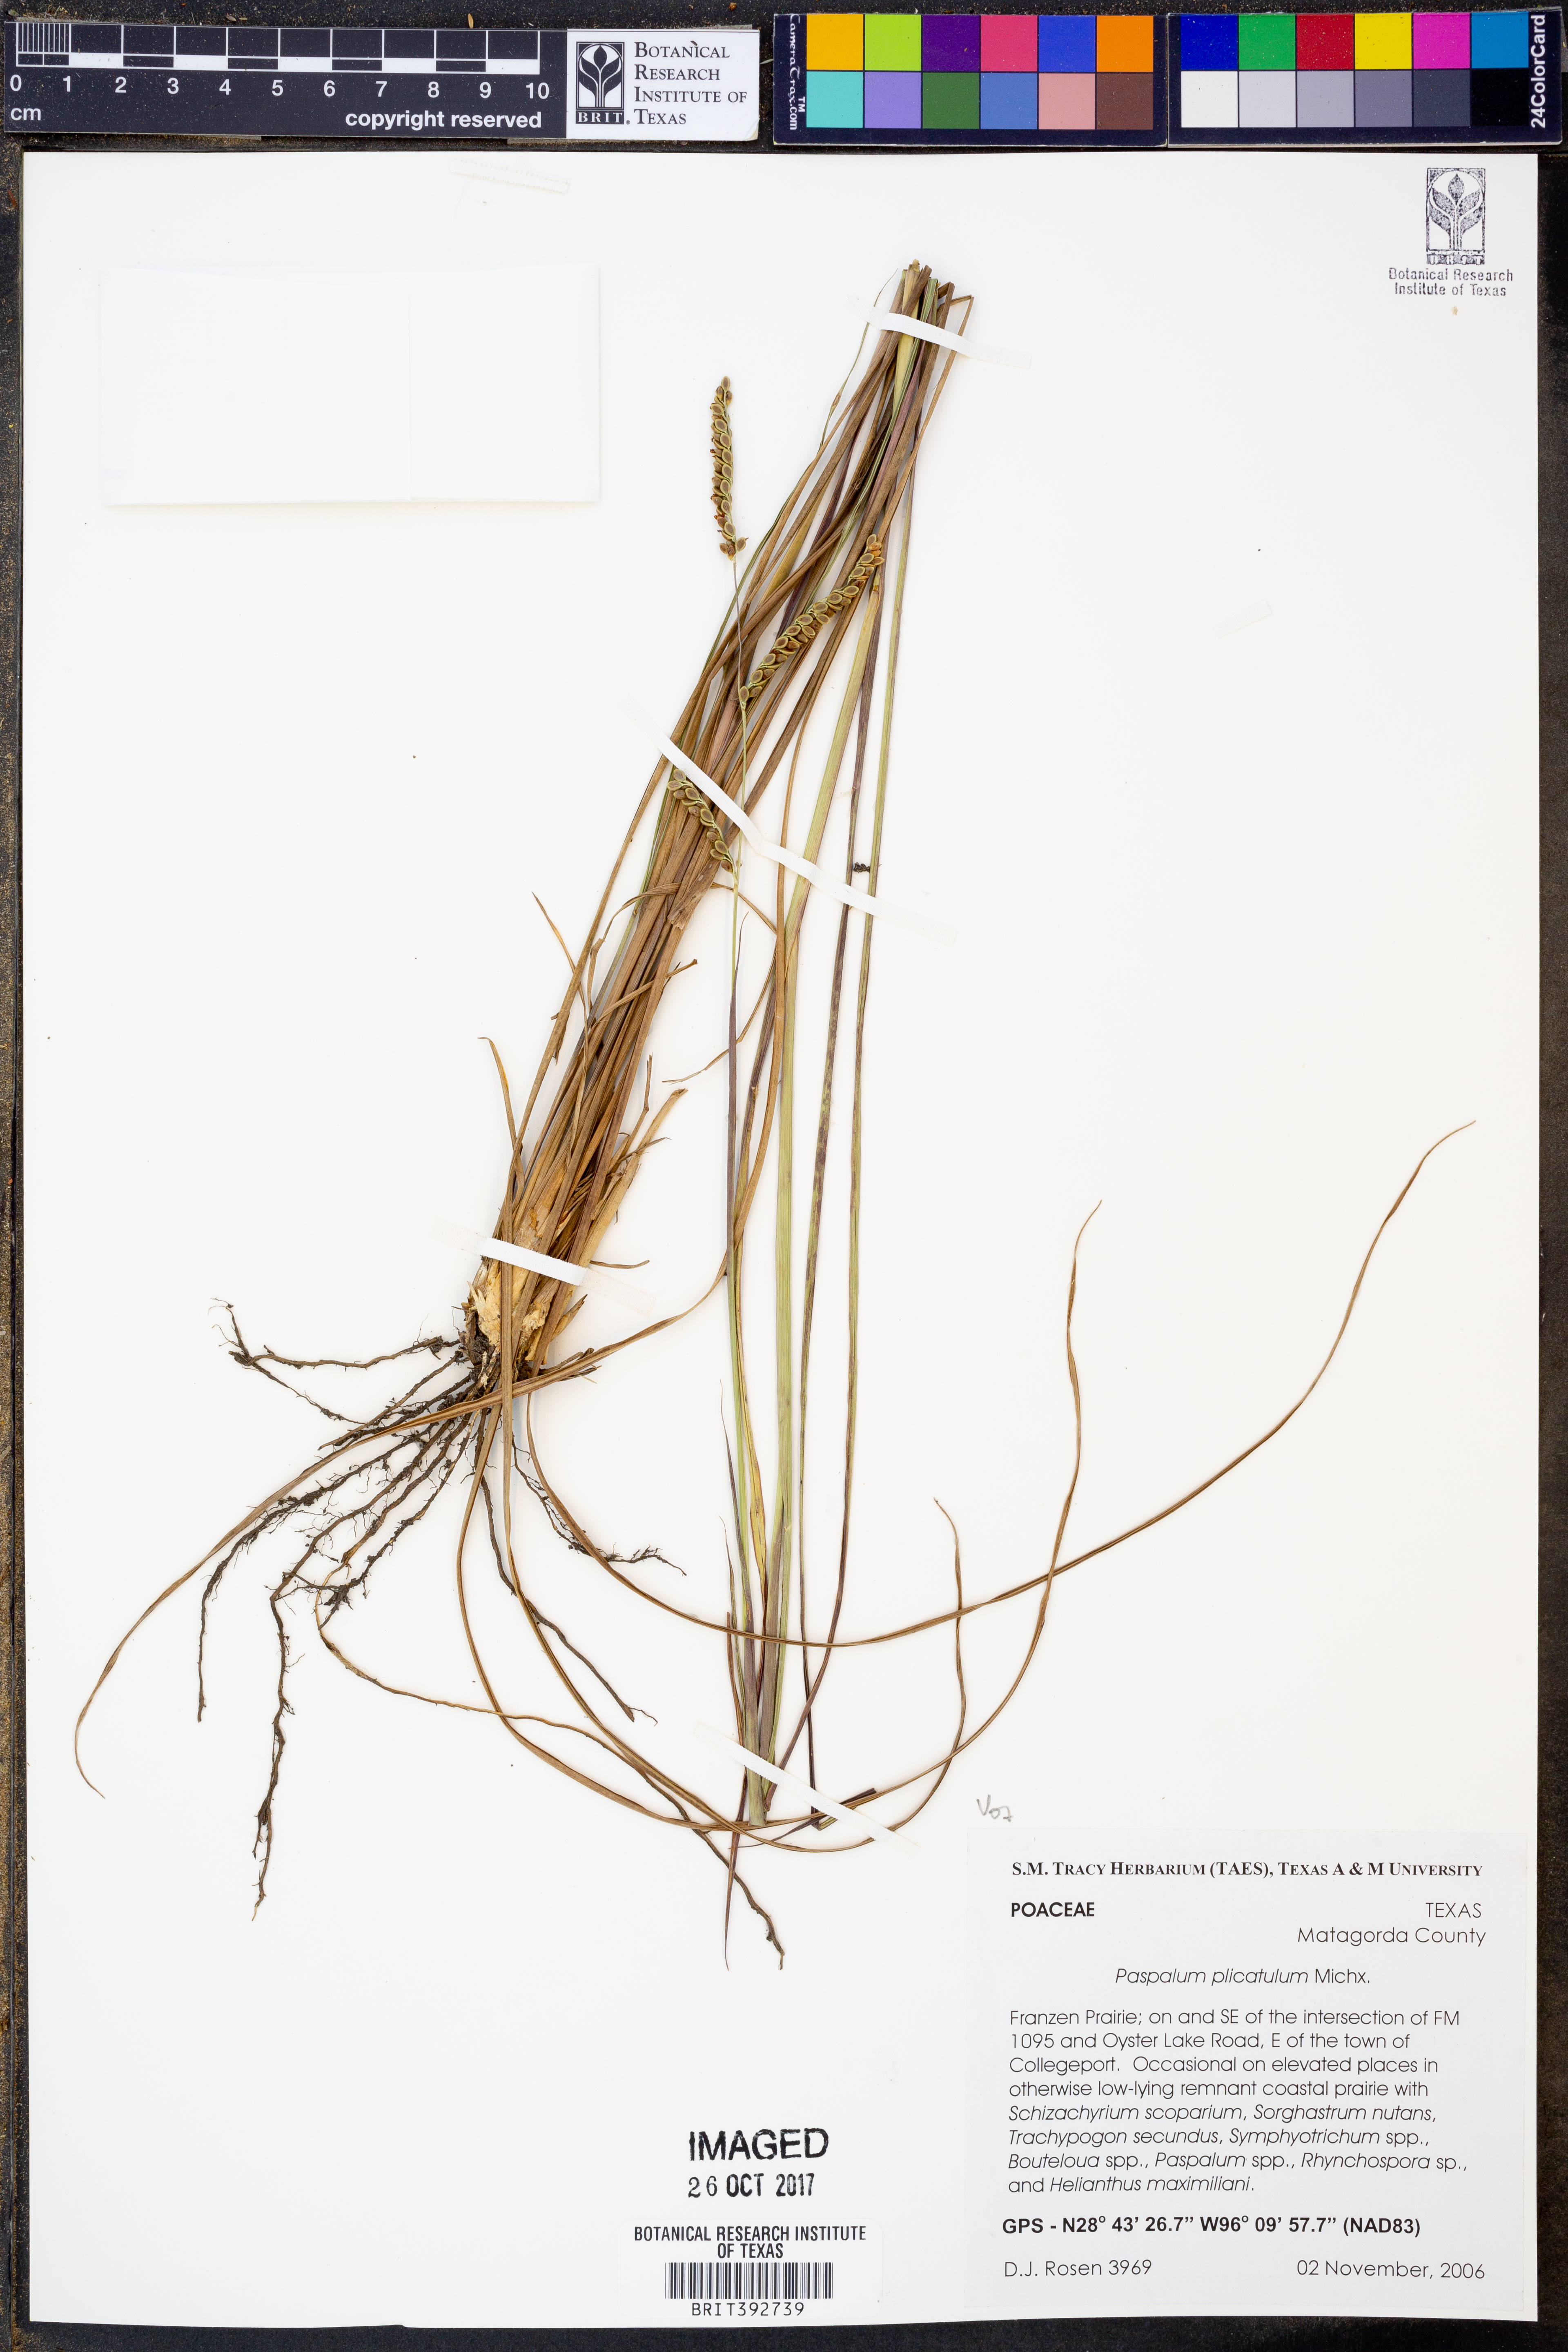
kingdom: Plantae
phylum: Tracheophyta
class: Liliopsida
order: Poales
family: Poaceae
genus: Paspalum
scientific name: Paspalum plicatulum
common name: Top paspalum
